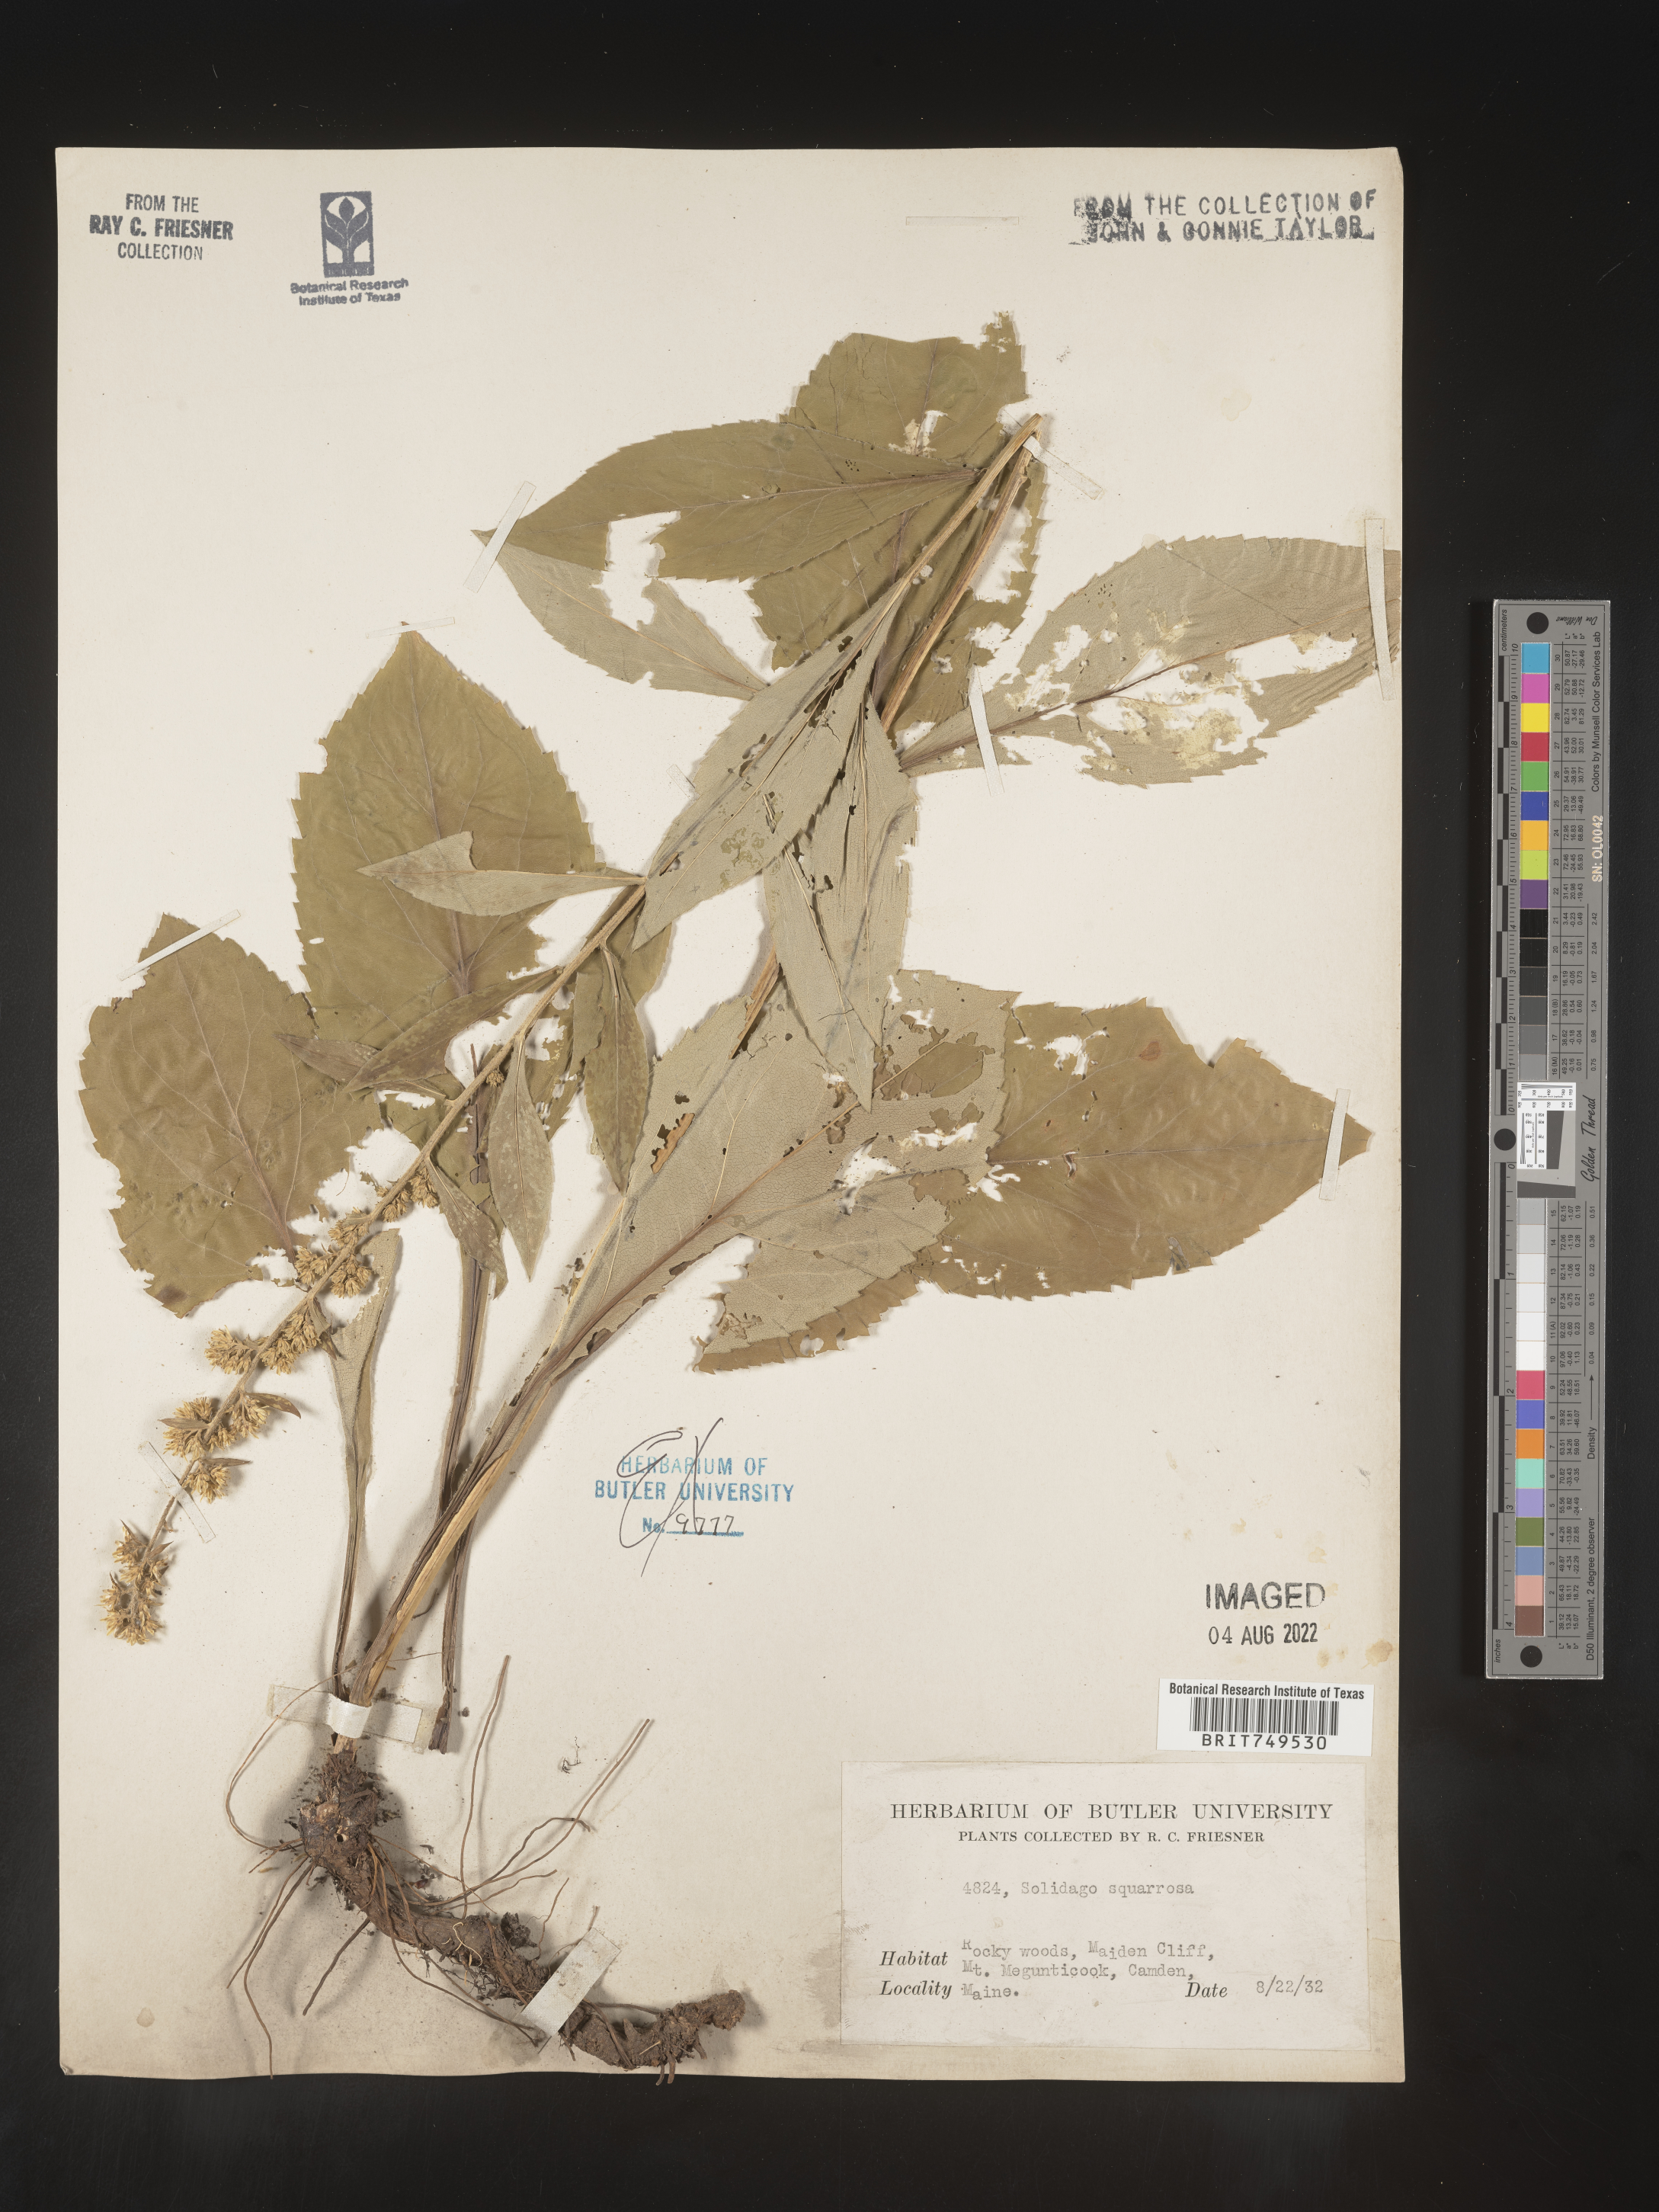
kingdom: Plantae
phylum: Tracheophyta
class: Magnoliopsida
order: Asterales
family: Asteraceae
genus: Solidago
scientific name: Solidago squarrosa
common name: Stout goldenrod
